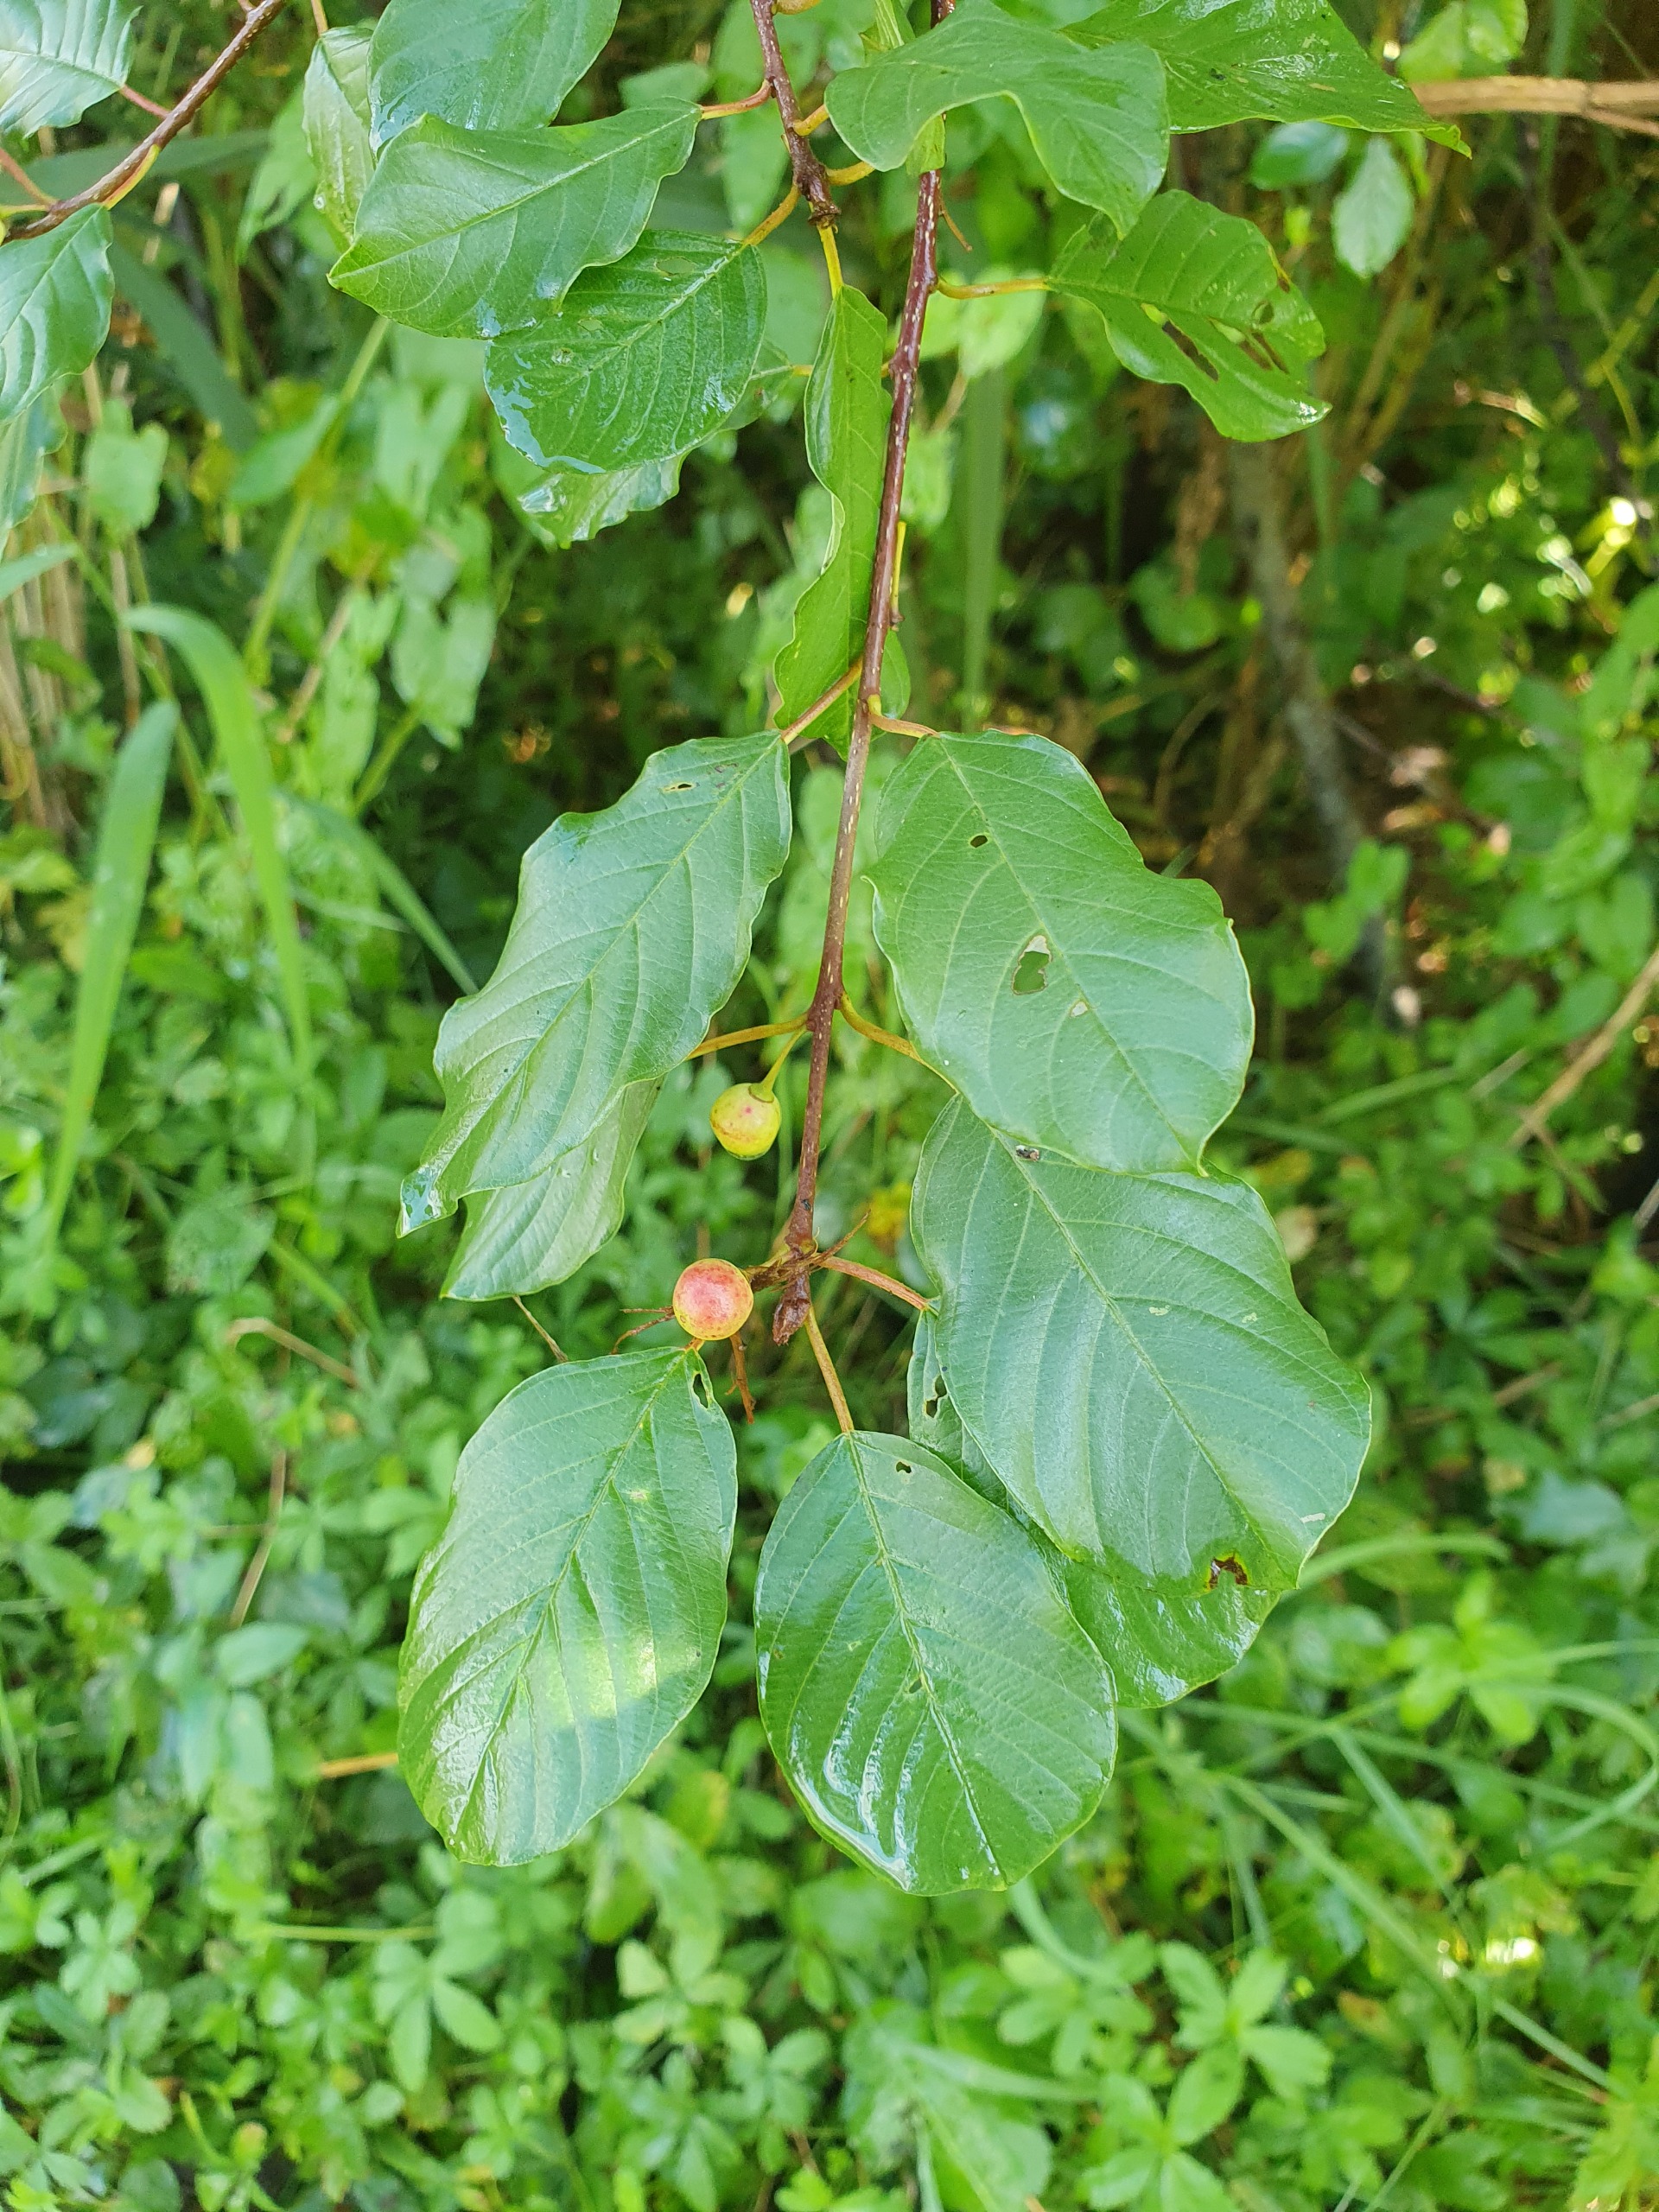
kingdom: Plantae
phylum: Tracheophyta
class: Magnoliopsida
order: Rosales
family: Rhamnaceae
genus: Frangula
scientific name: Frangula alnus
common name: Tørst
